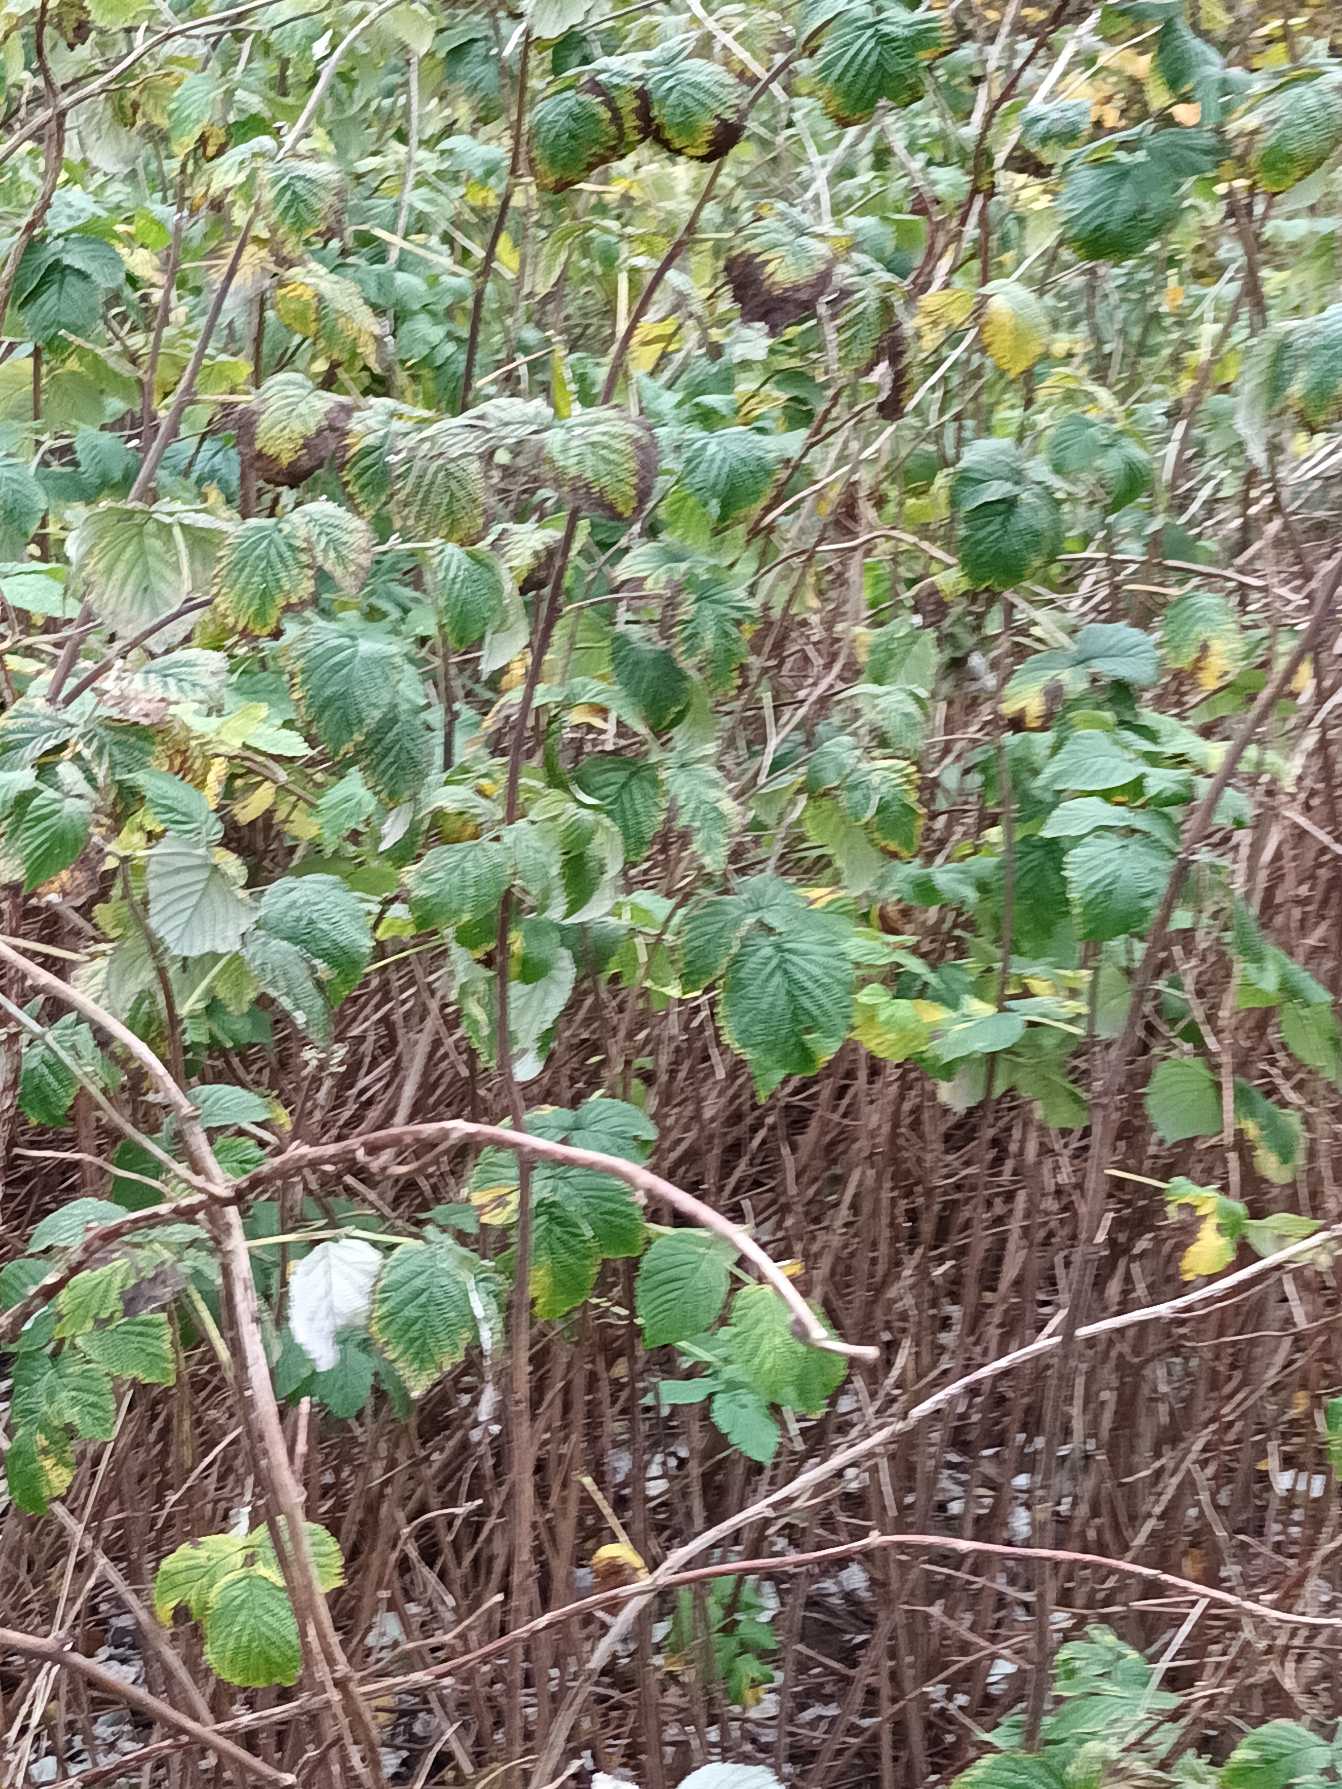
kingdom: Plantae
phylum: Tracheophyta
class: Magnoliopsida
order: Rosales
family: Rosaceae
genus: Rubus
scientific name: Rubus idaeus
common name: Hindbær
